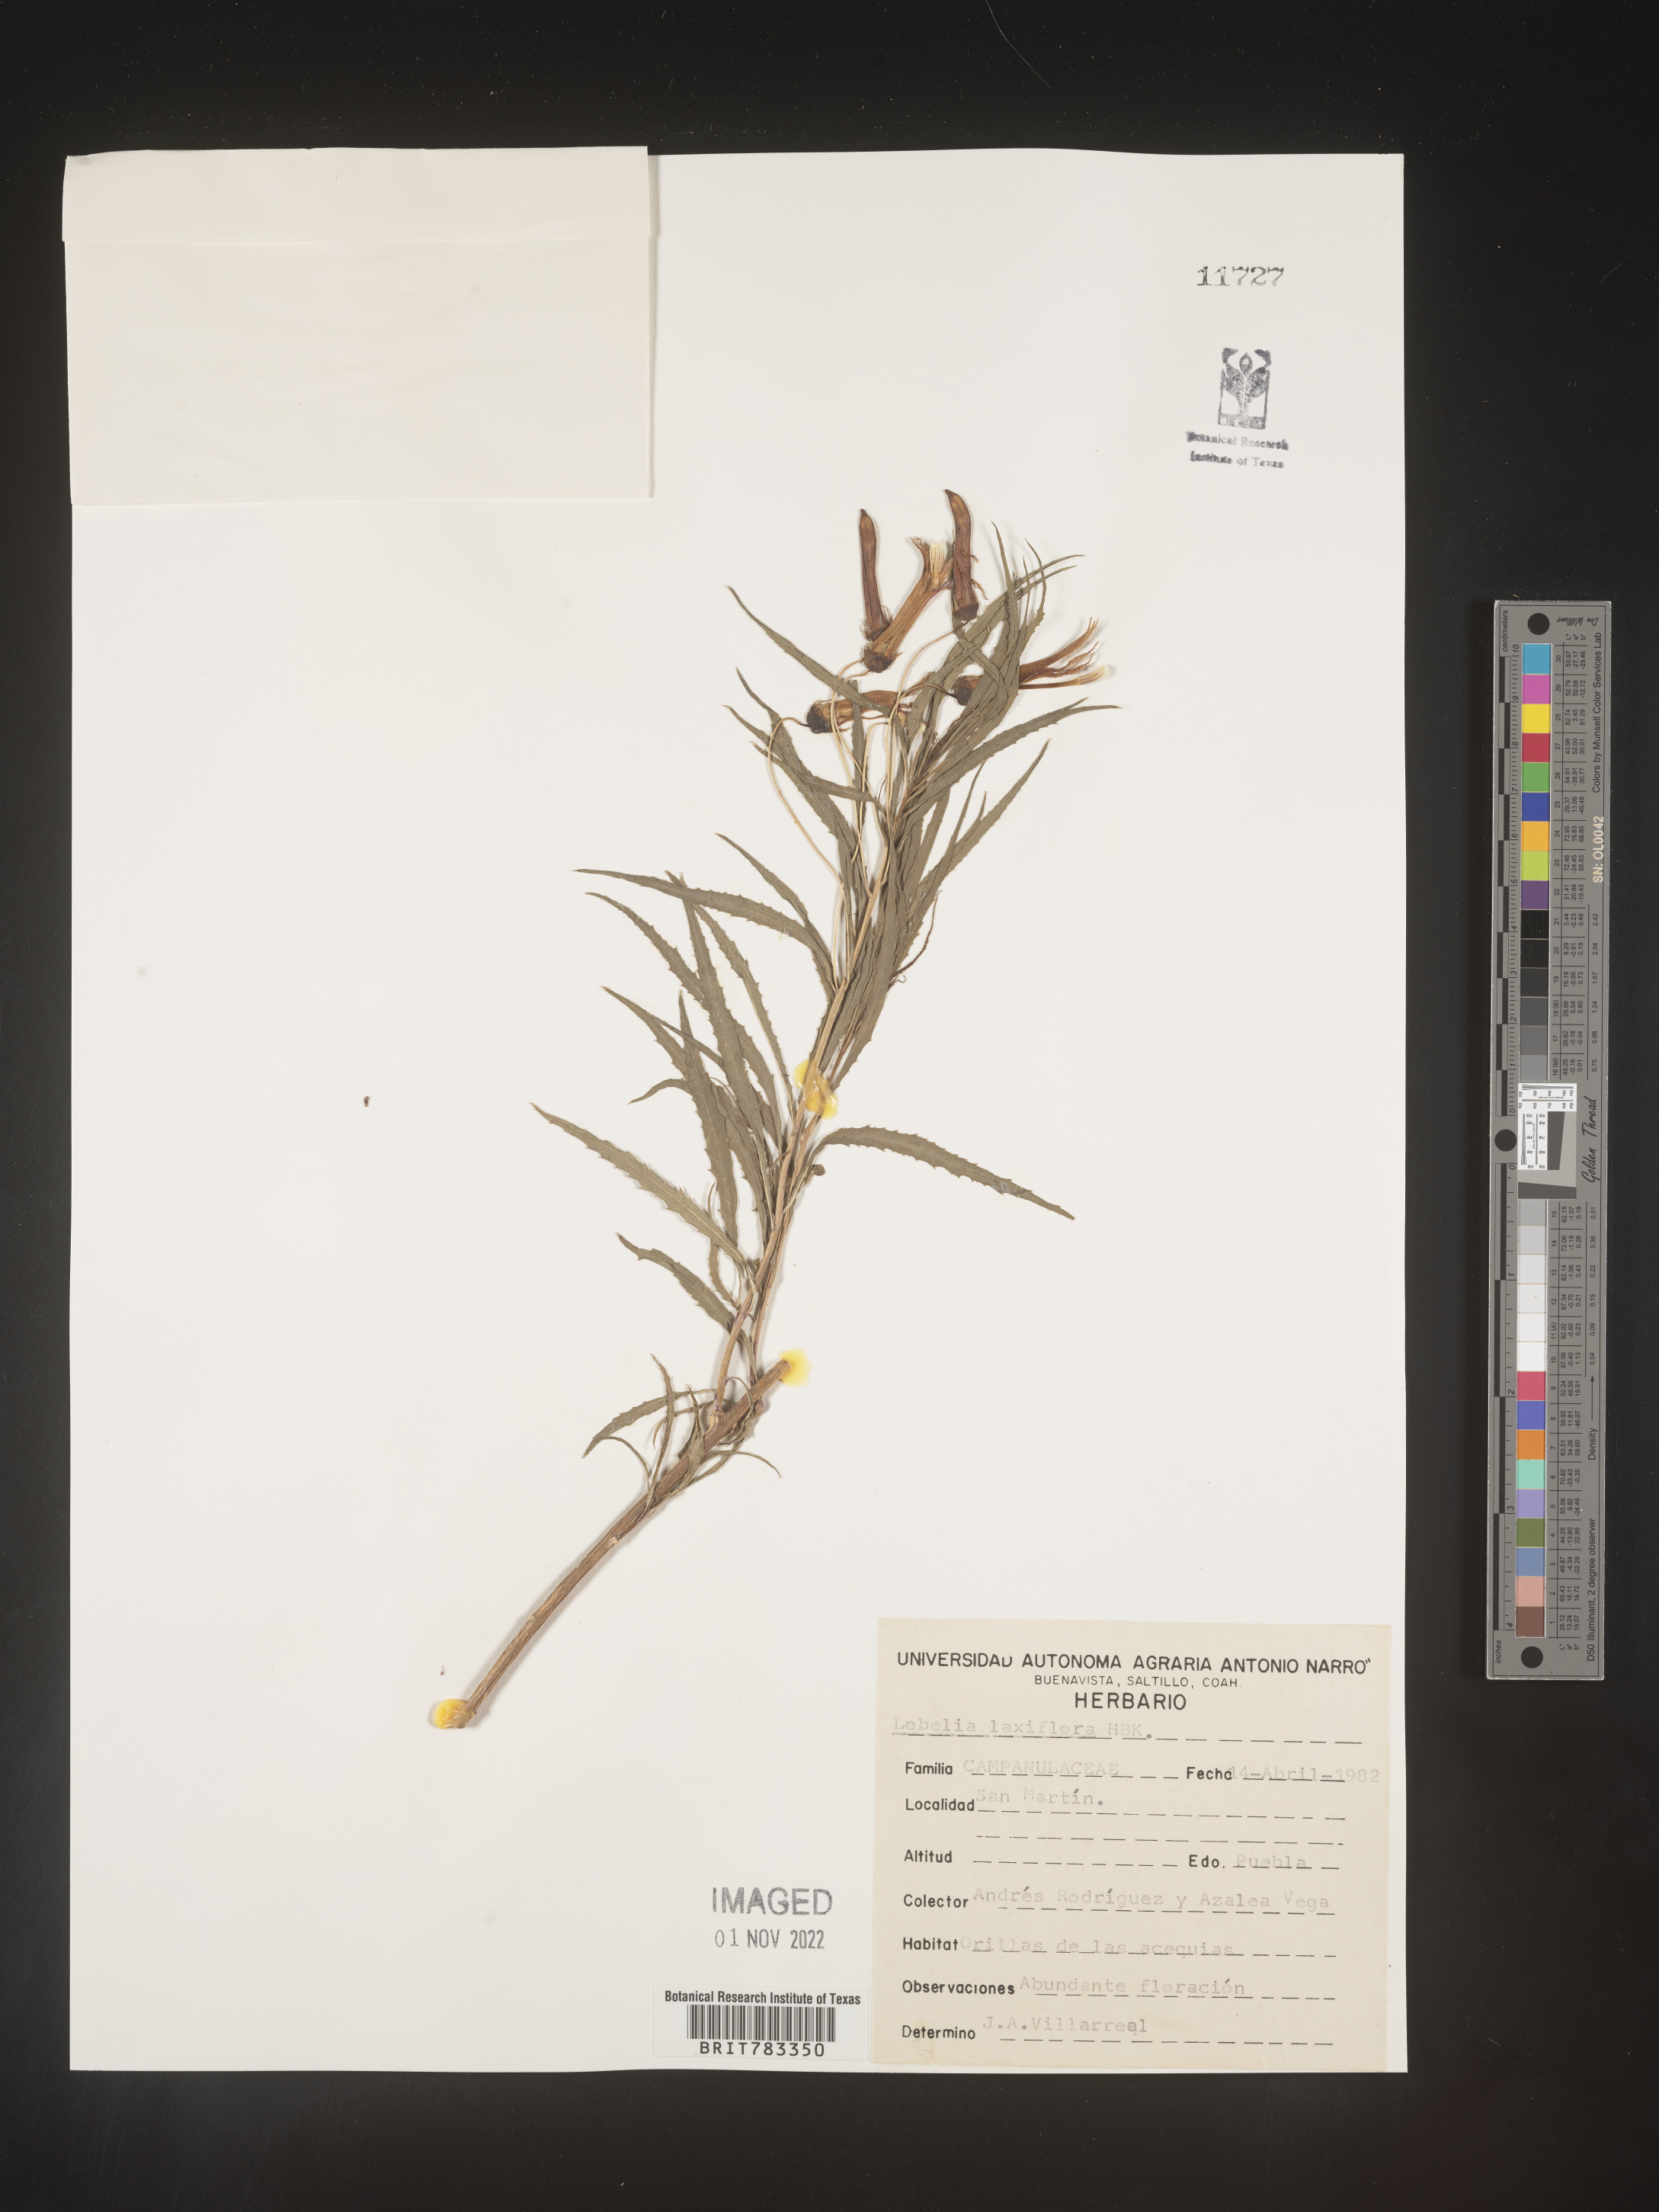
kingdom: Plantae
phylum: Tracheophyta
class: Magnoliopsida
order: Asterales
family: Campanulaceae
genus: Lobelia
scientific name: Lobelia
